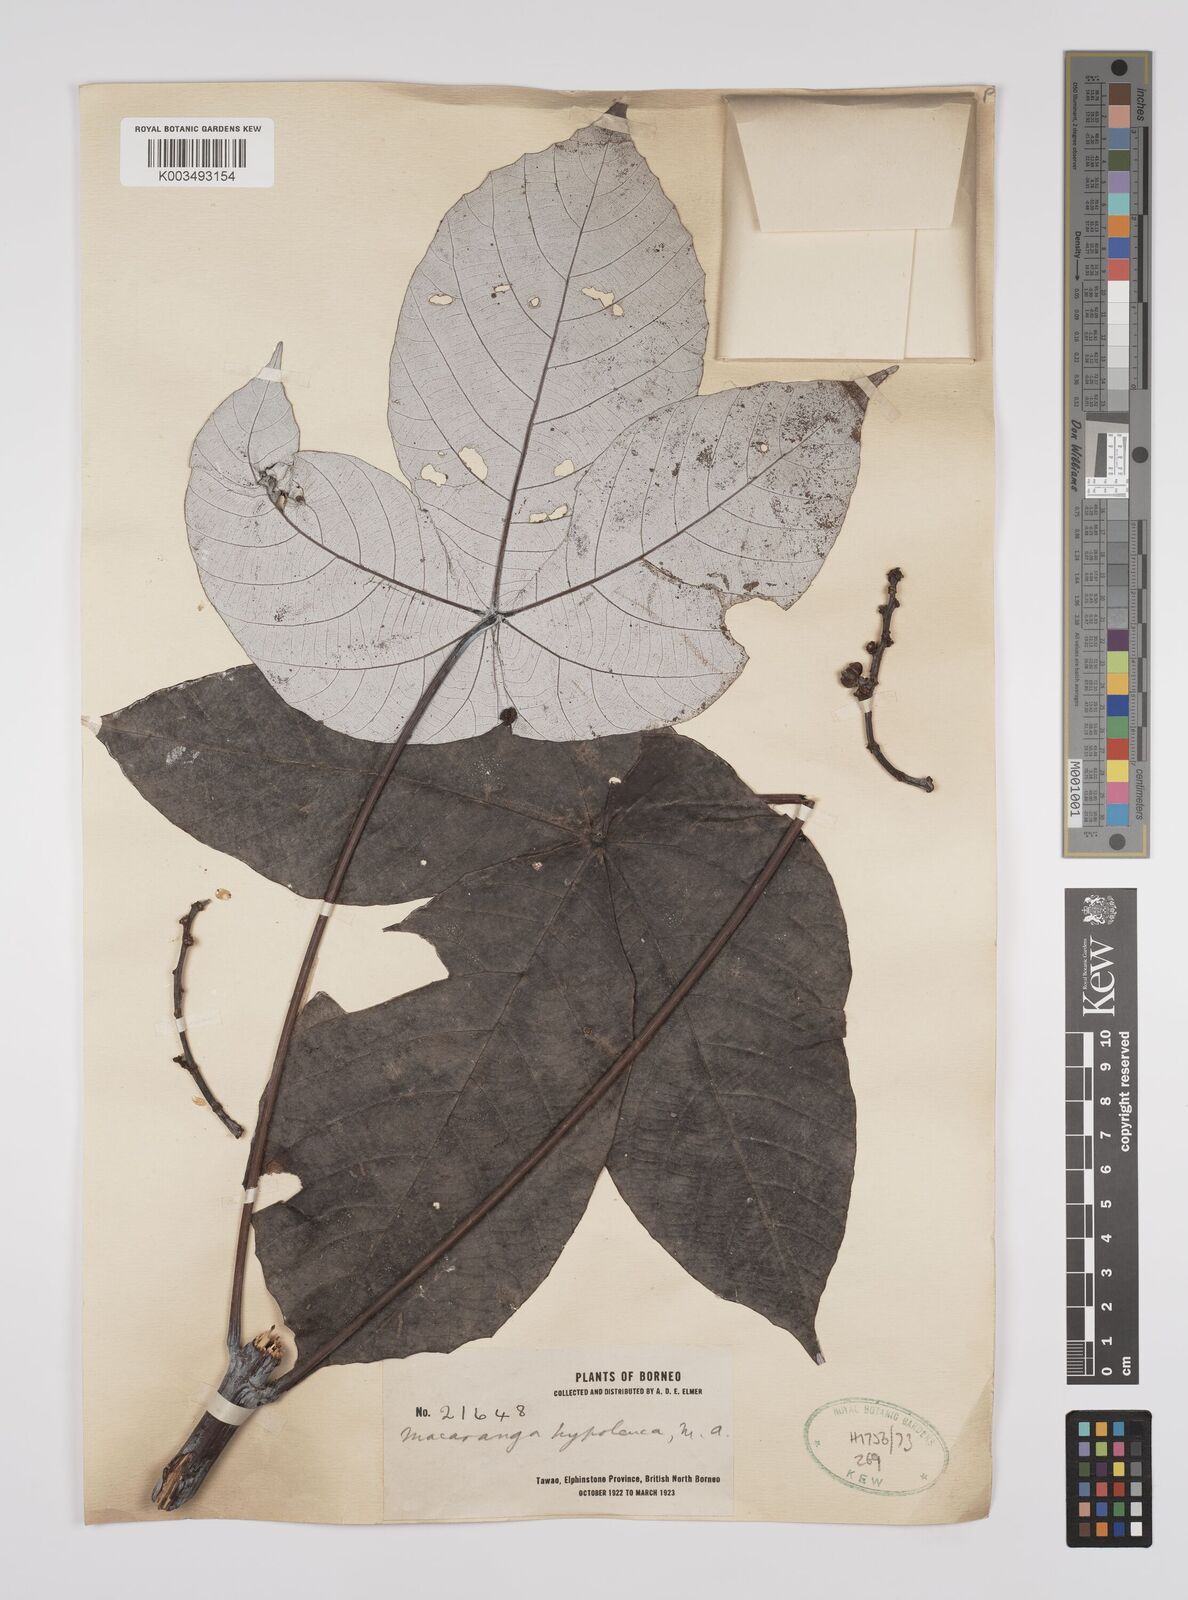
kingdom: Plantae
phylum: Tracheophyta
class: Magnoliopsida
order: Malpighiales
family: Euphorbiaceae
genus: Macaranga
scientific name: Macaranga hypoleuca
